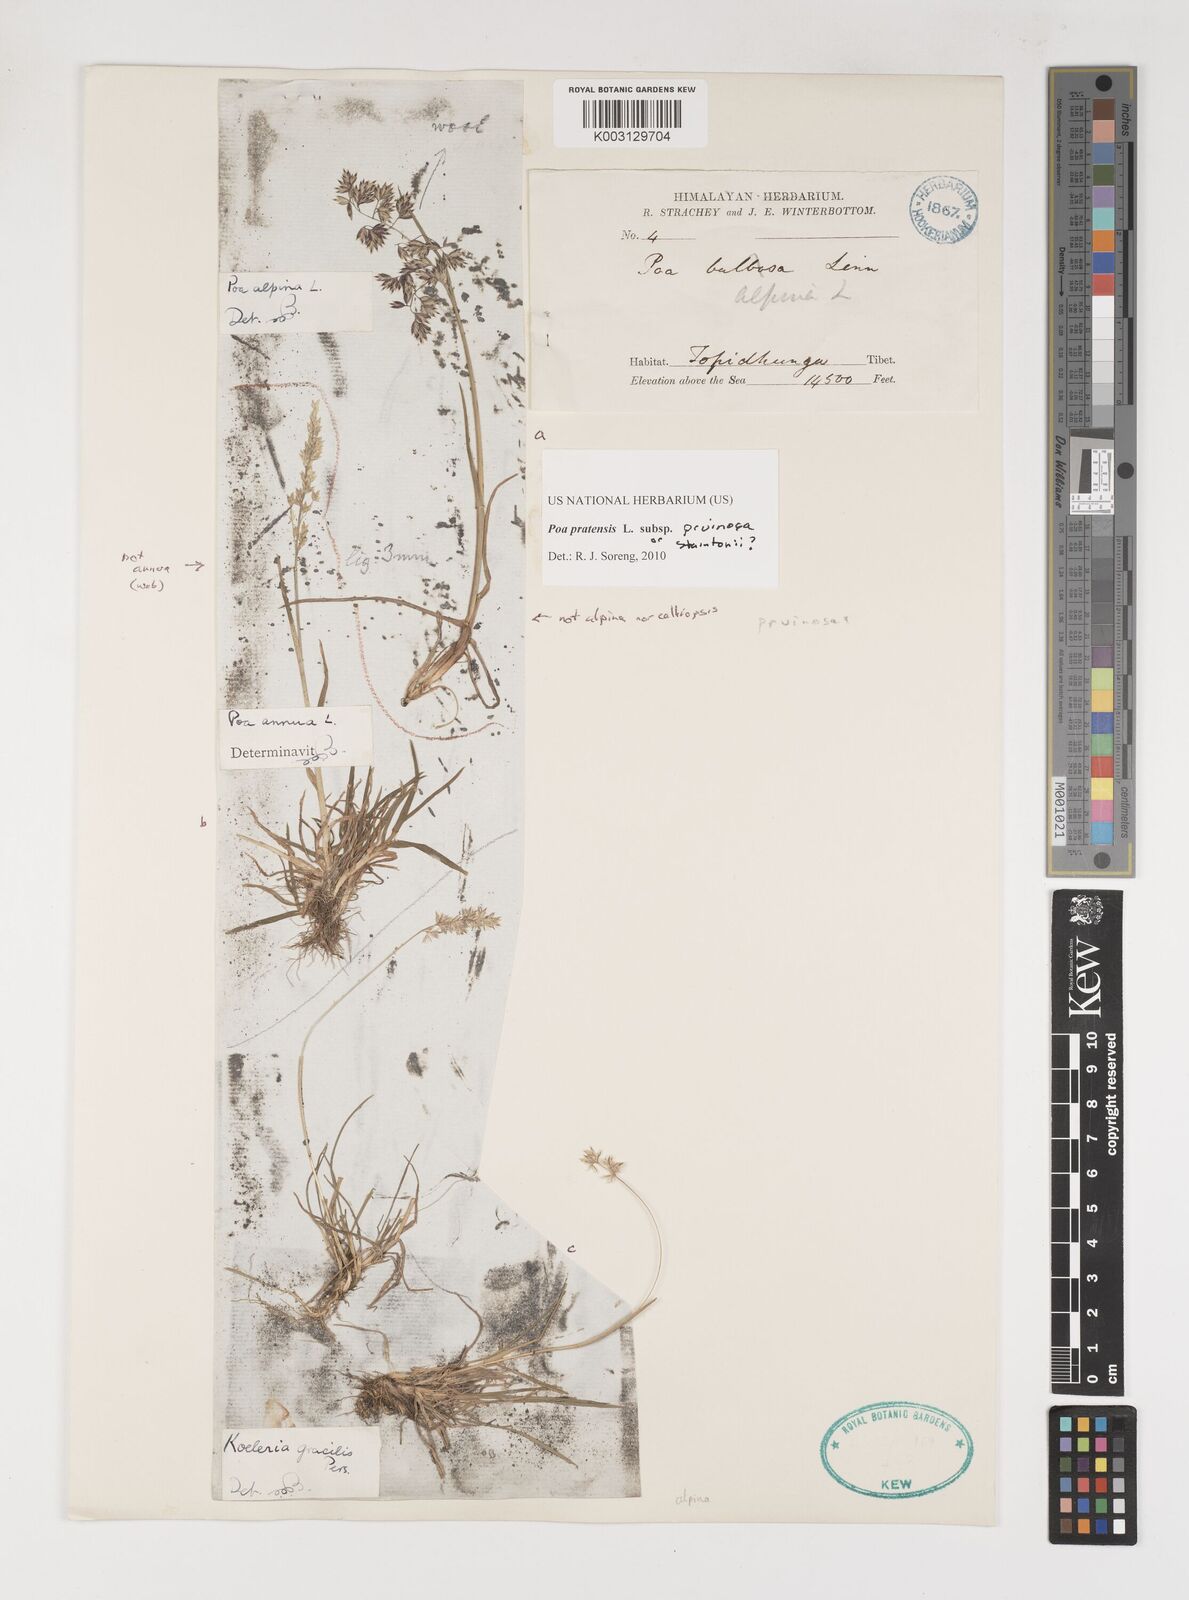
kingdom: Plantae
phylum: Tracheophyta
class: Liliopsida
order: Poales
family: Poaceae
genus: Poa
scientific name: Poa tianschanica
